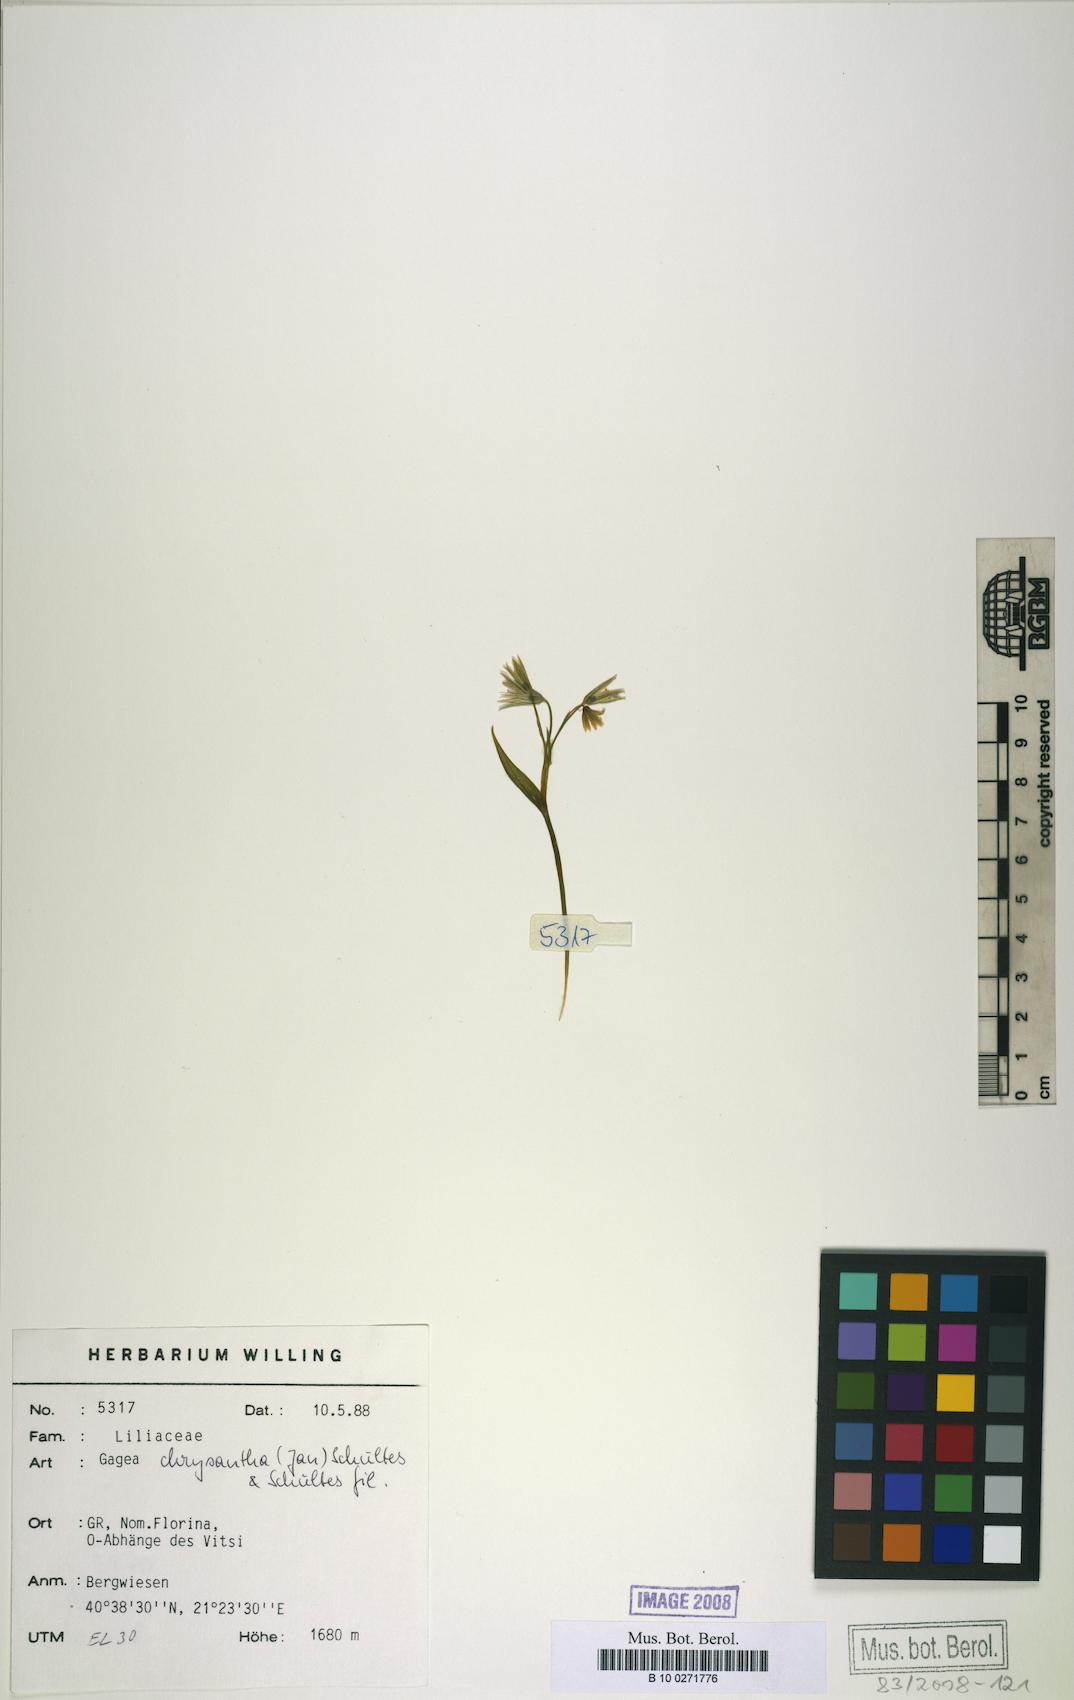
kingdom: Plantae
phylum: Tracheophyta
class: Liliopsida
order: Liliales
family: Liliaceae
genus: Gagea
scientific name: Gagea chrysantha
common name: Golden gagea
